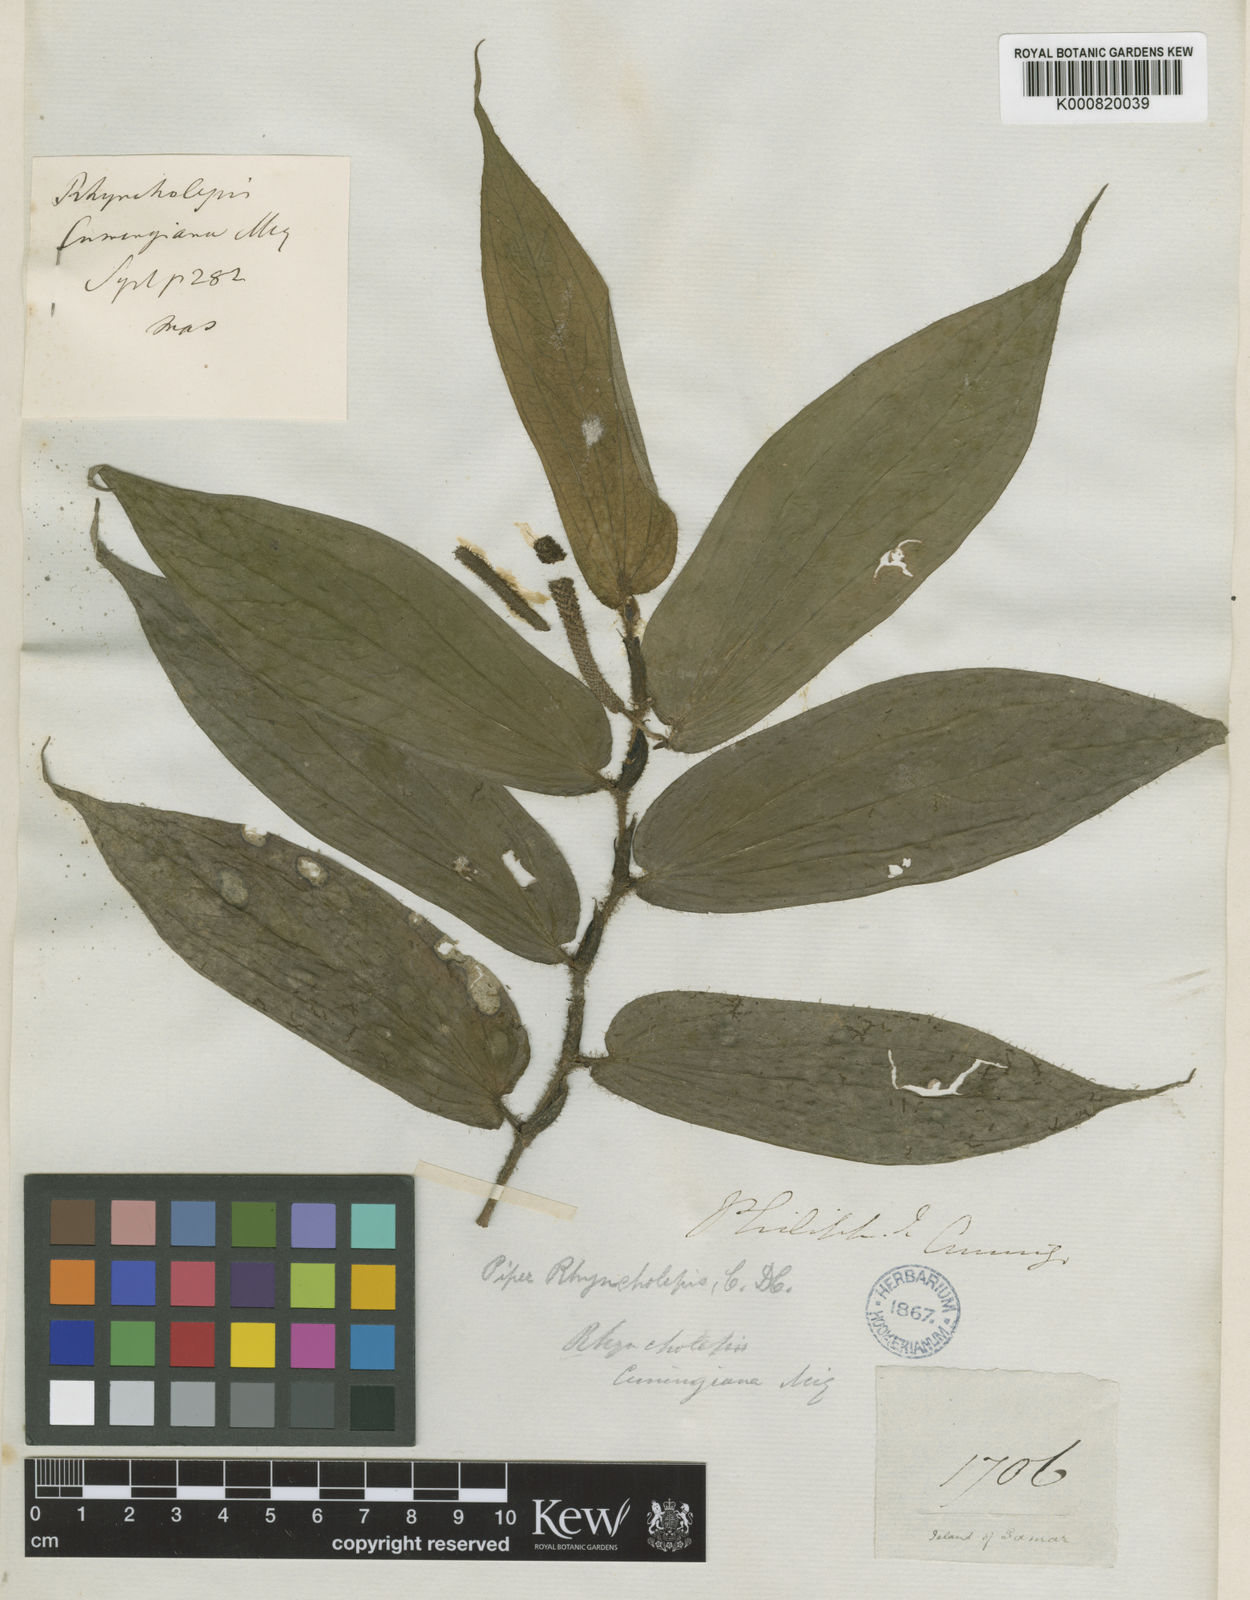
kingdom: Plantae
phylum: Tracheophyta
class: Magnoliopsida
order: Piperales
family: Piperaceae
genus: Piper
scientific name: Piper brevicuspe
